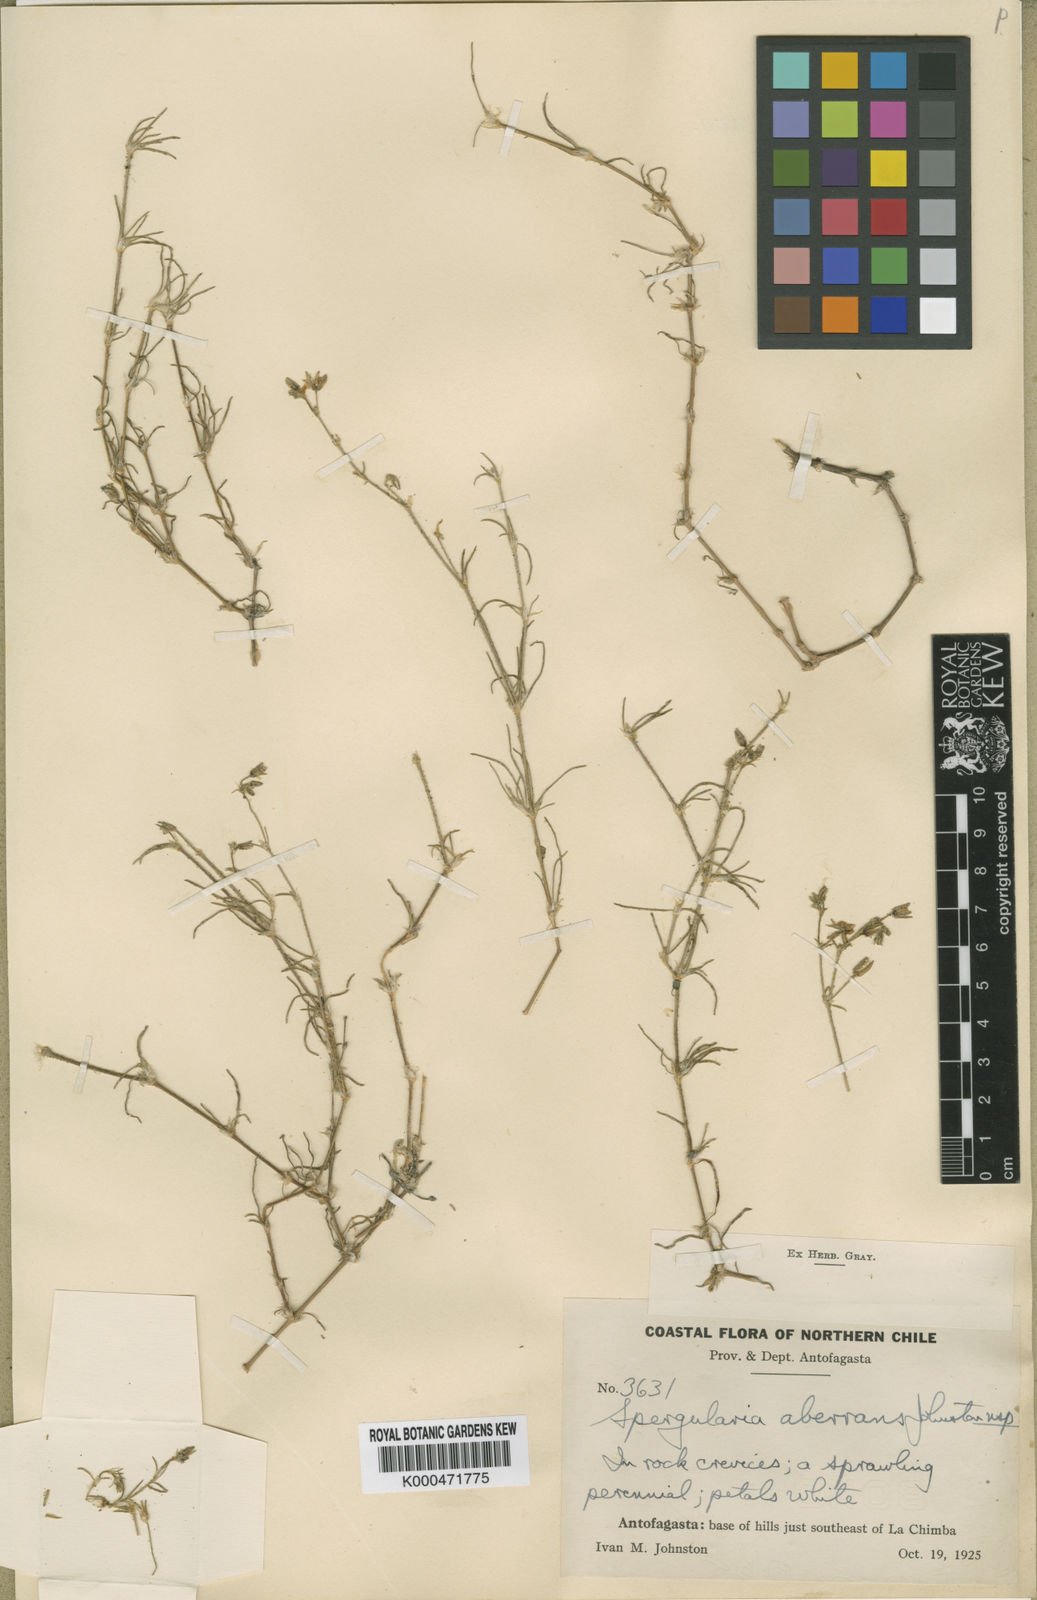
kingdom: Plantae
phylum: Tracheophyta
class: Magnoliopsida
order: Caryophyllales
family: Caryophyllaceae
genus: Spergularia
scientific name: Spergularia aberrans
